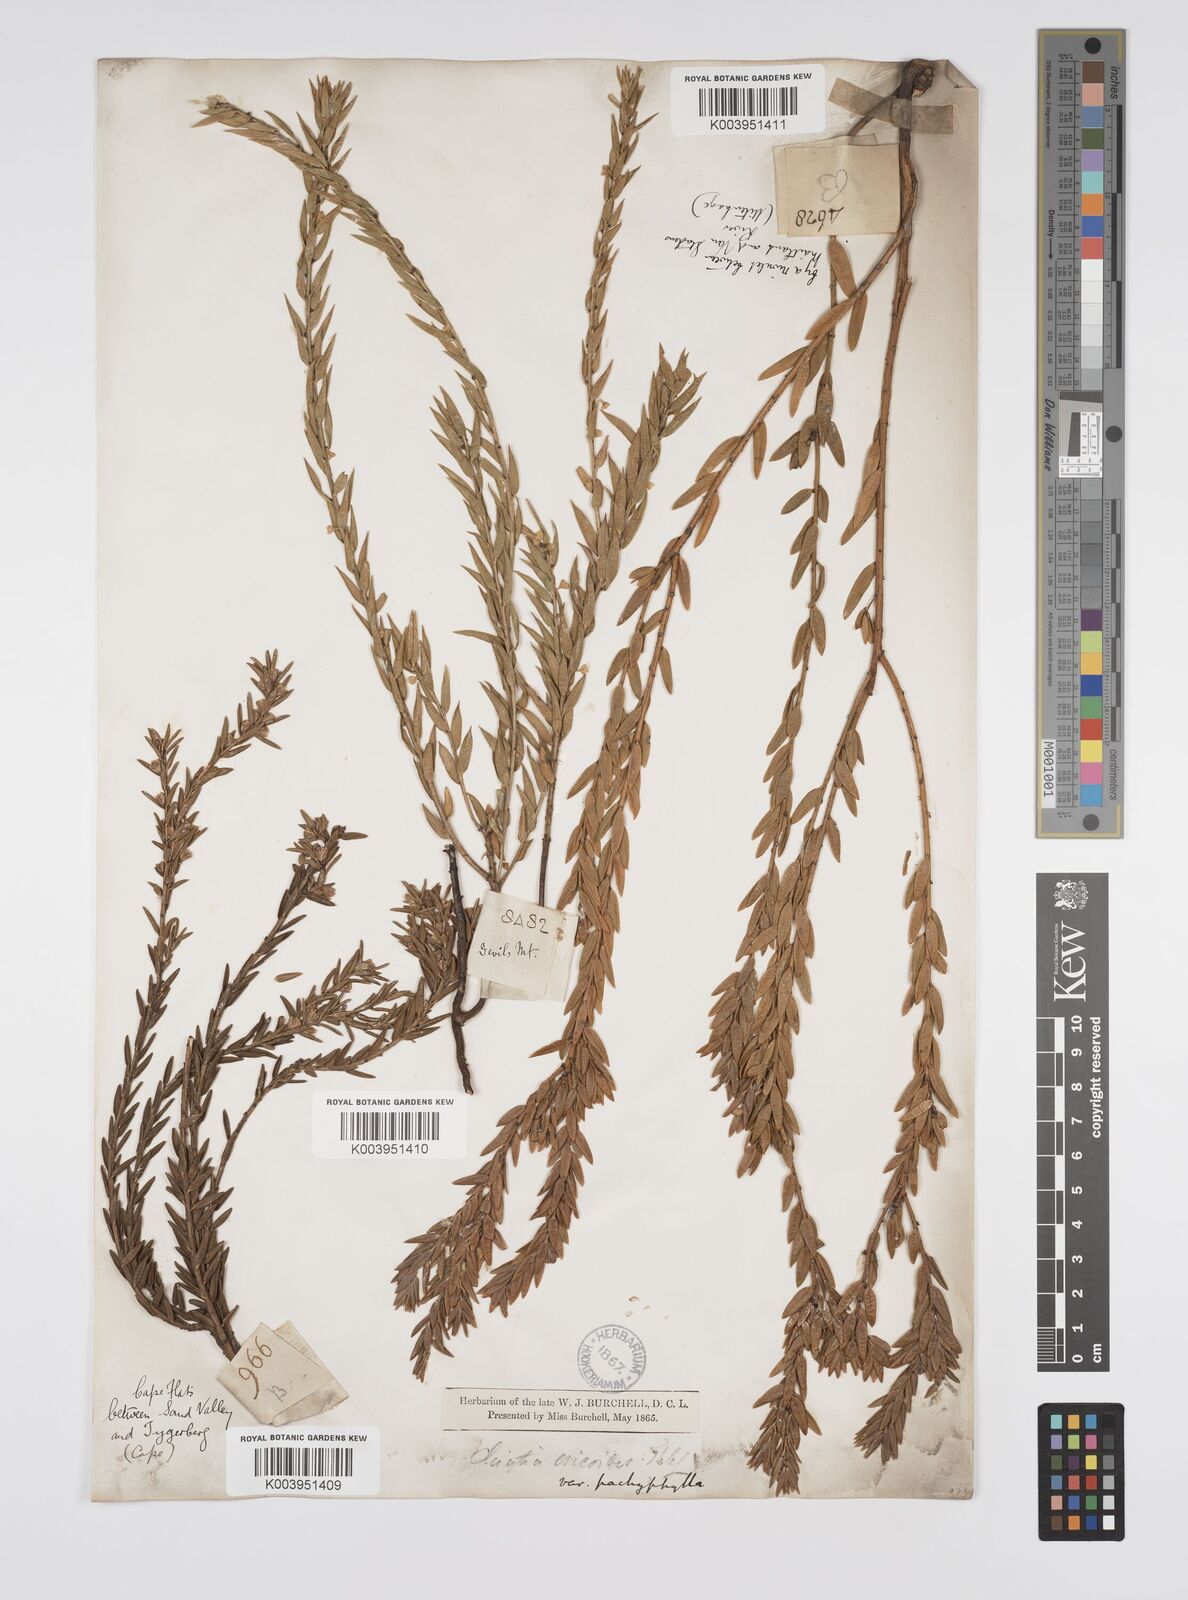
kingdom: Plantae
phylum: Tracheophyta
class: Magnoliopsida
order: Malpighiales
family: Peraceae
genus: Clutia
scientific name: Clutia
